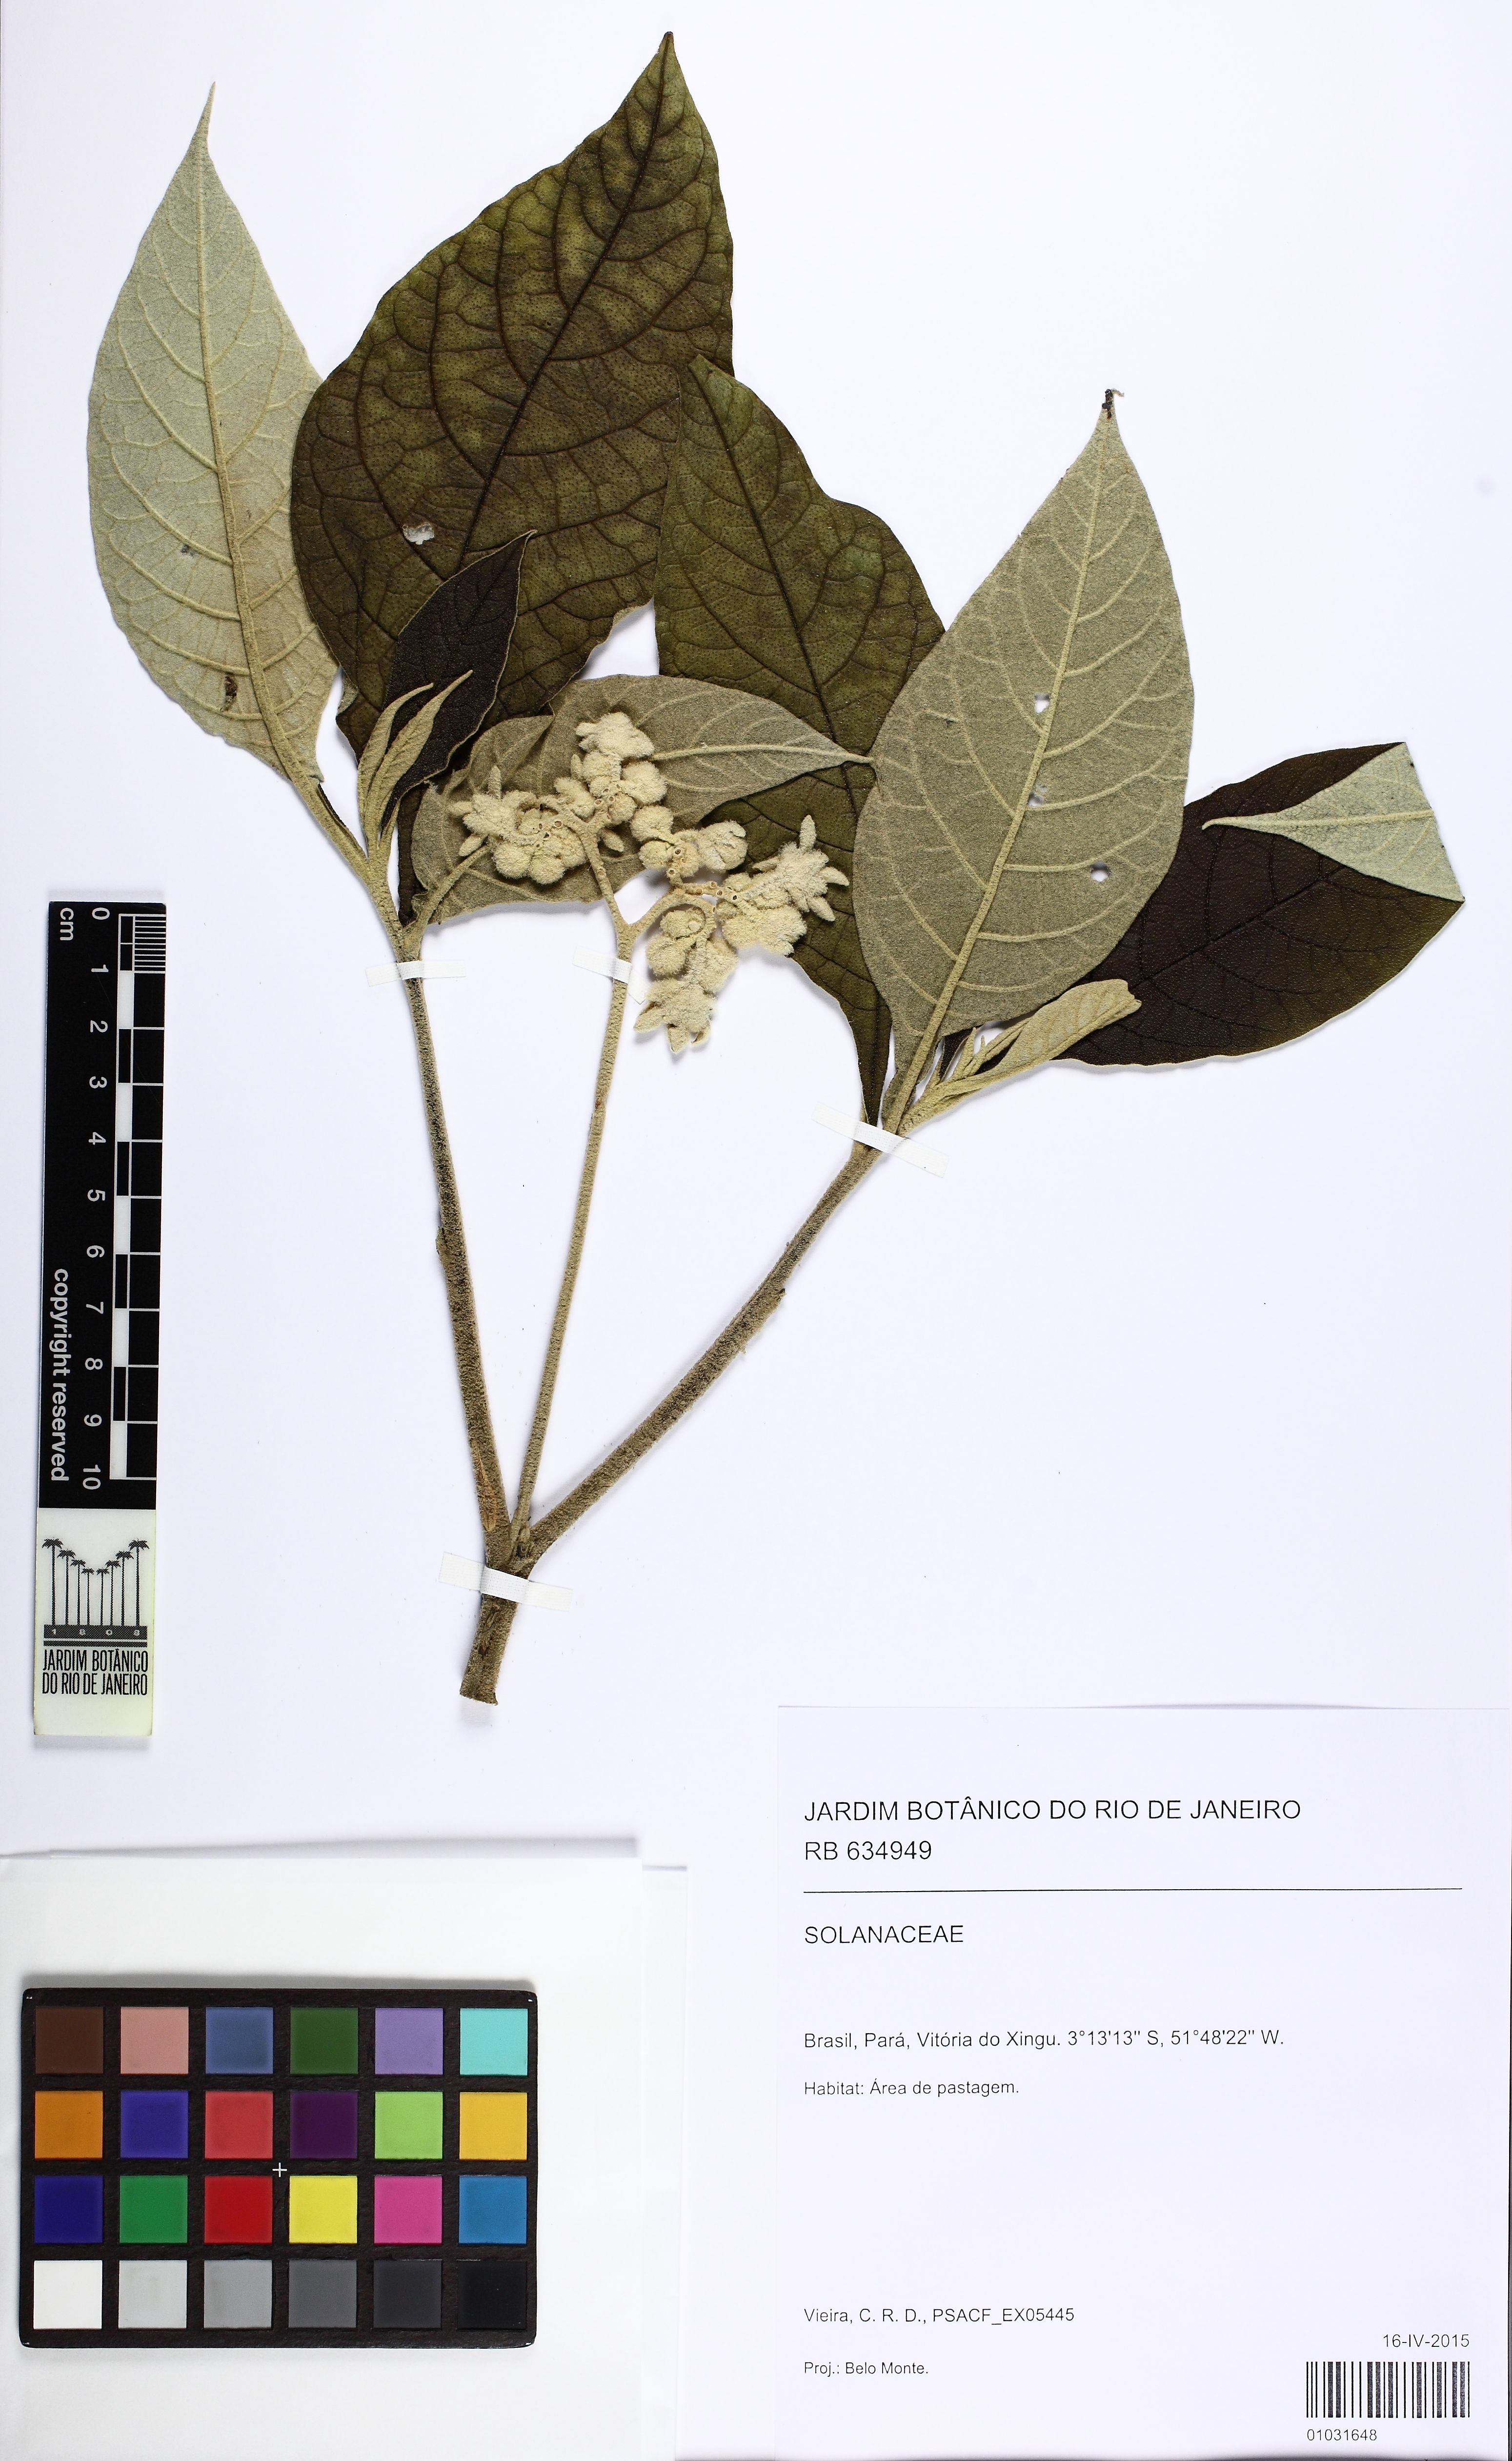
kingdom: Plantae
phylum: Tracheophyta
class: Magnoliopsida
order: Solanales
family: Solanaceae
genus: Solanum
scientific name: Solanum serratum
